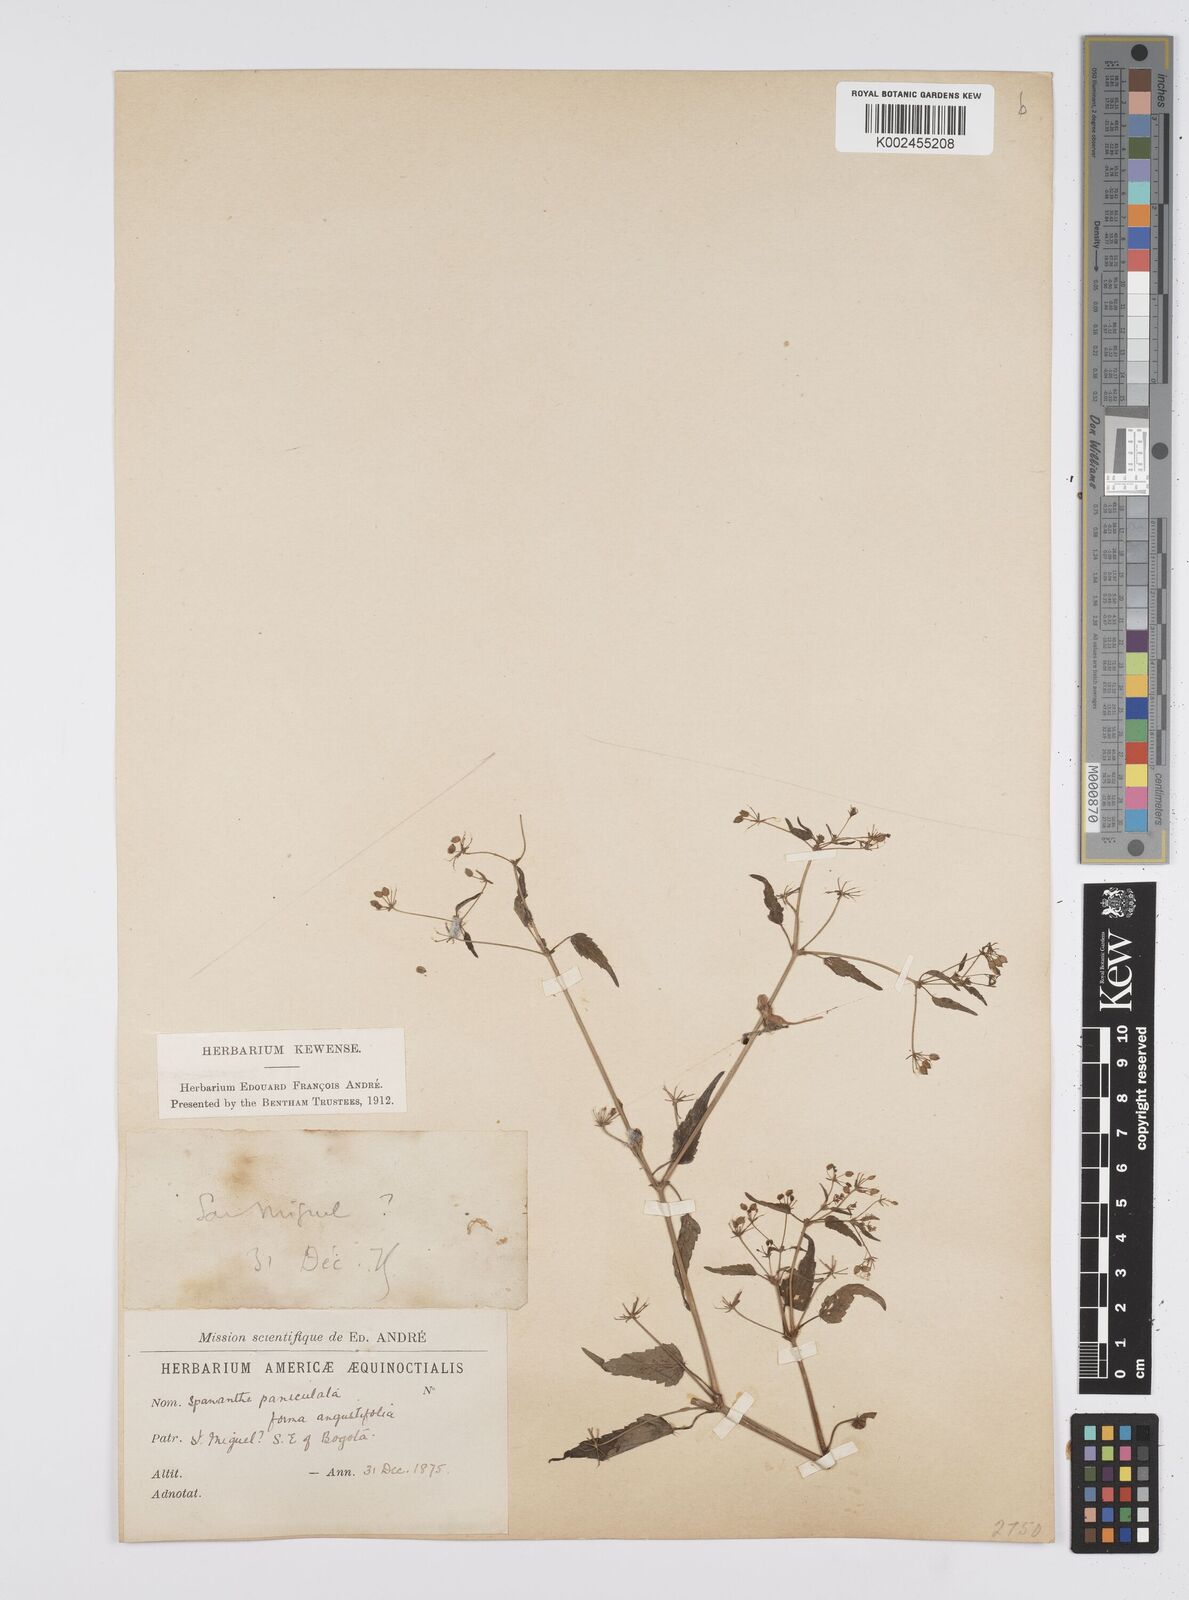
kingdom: Plantae
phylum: Tracheophyta
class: Magnoliopsida
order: Apiales
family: Apiaceae
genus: Azorella
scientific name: Azorella
